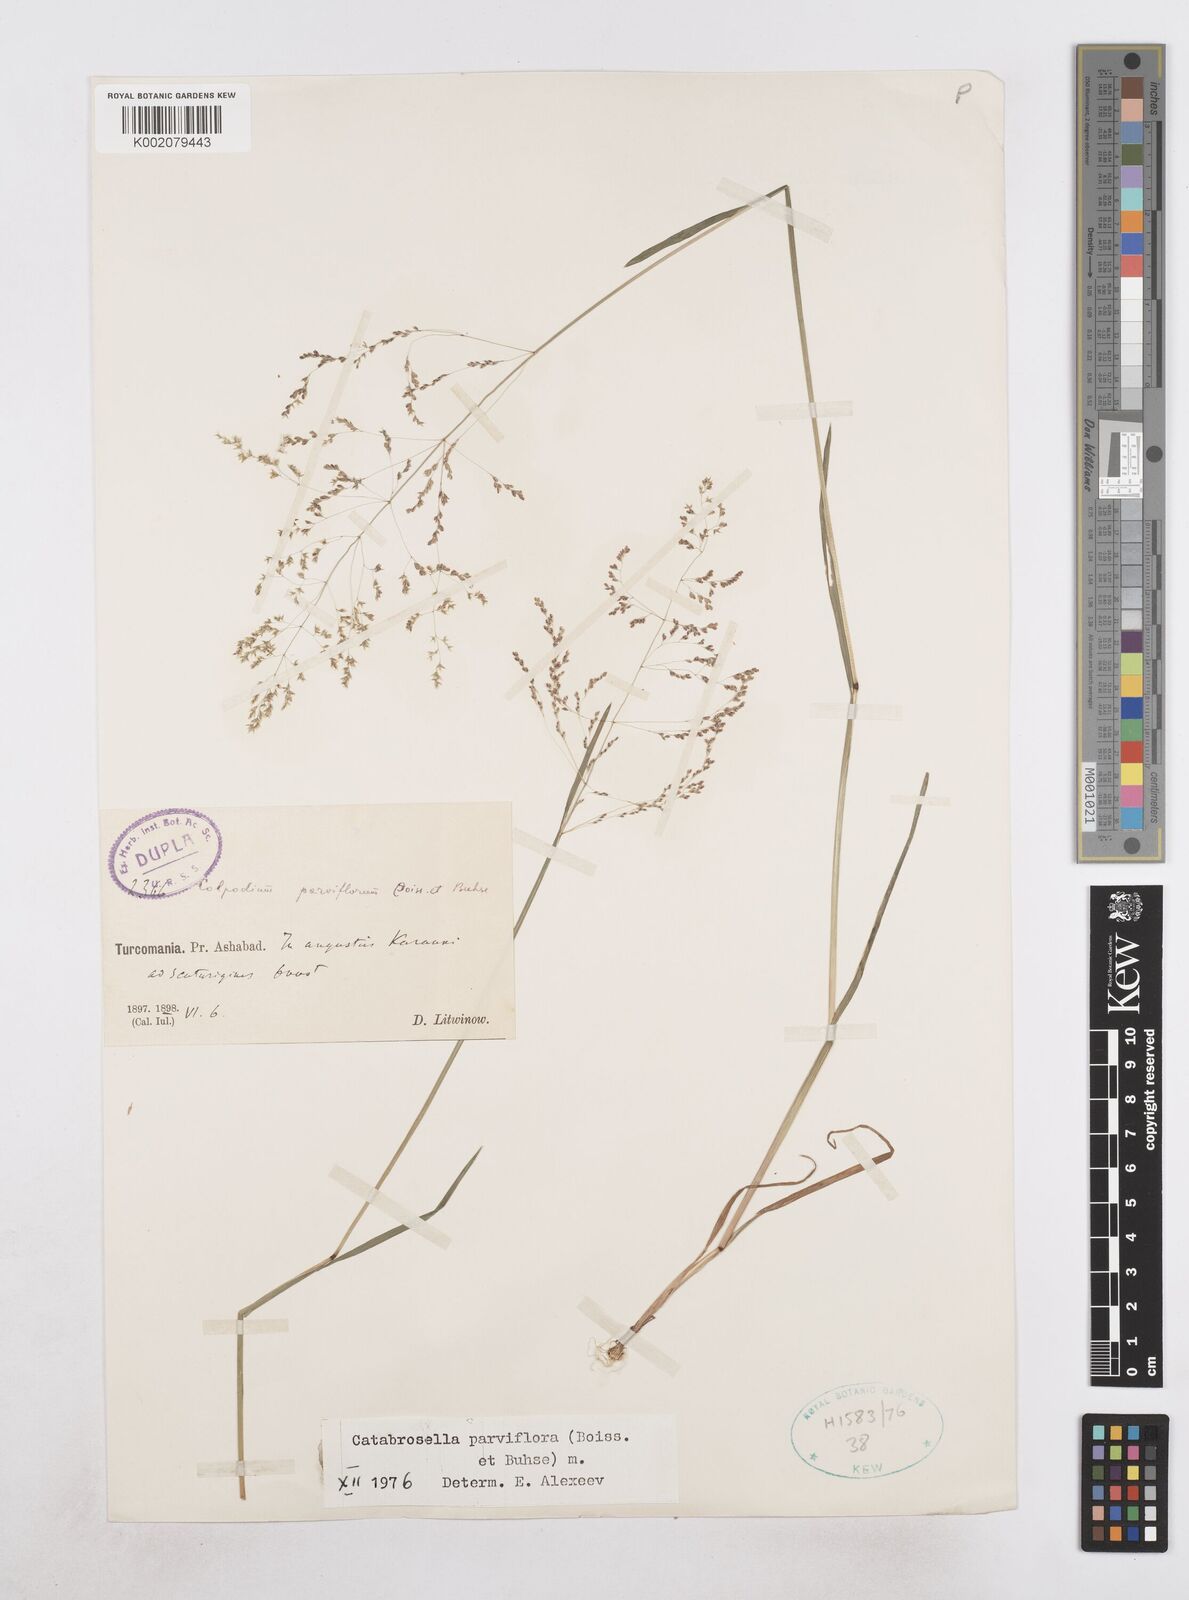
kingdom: Plantae
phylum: Tracheophyta
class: Liliopsida
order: Poales
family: Poaceae
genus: Catabrosella
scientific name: Catabrosella humilis
